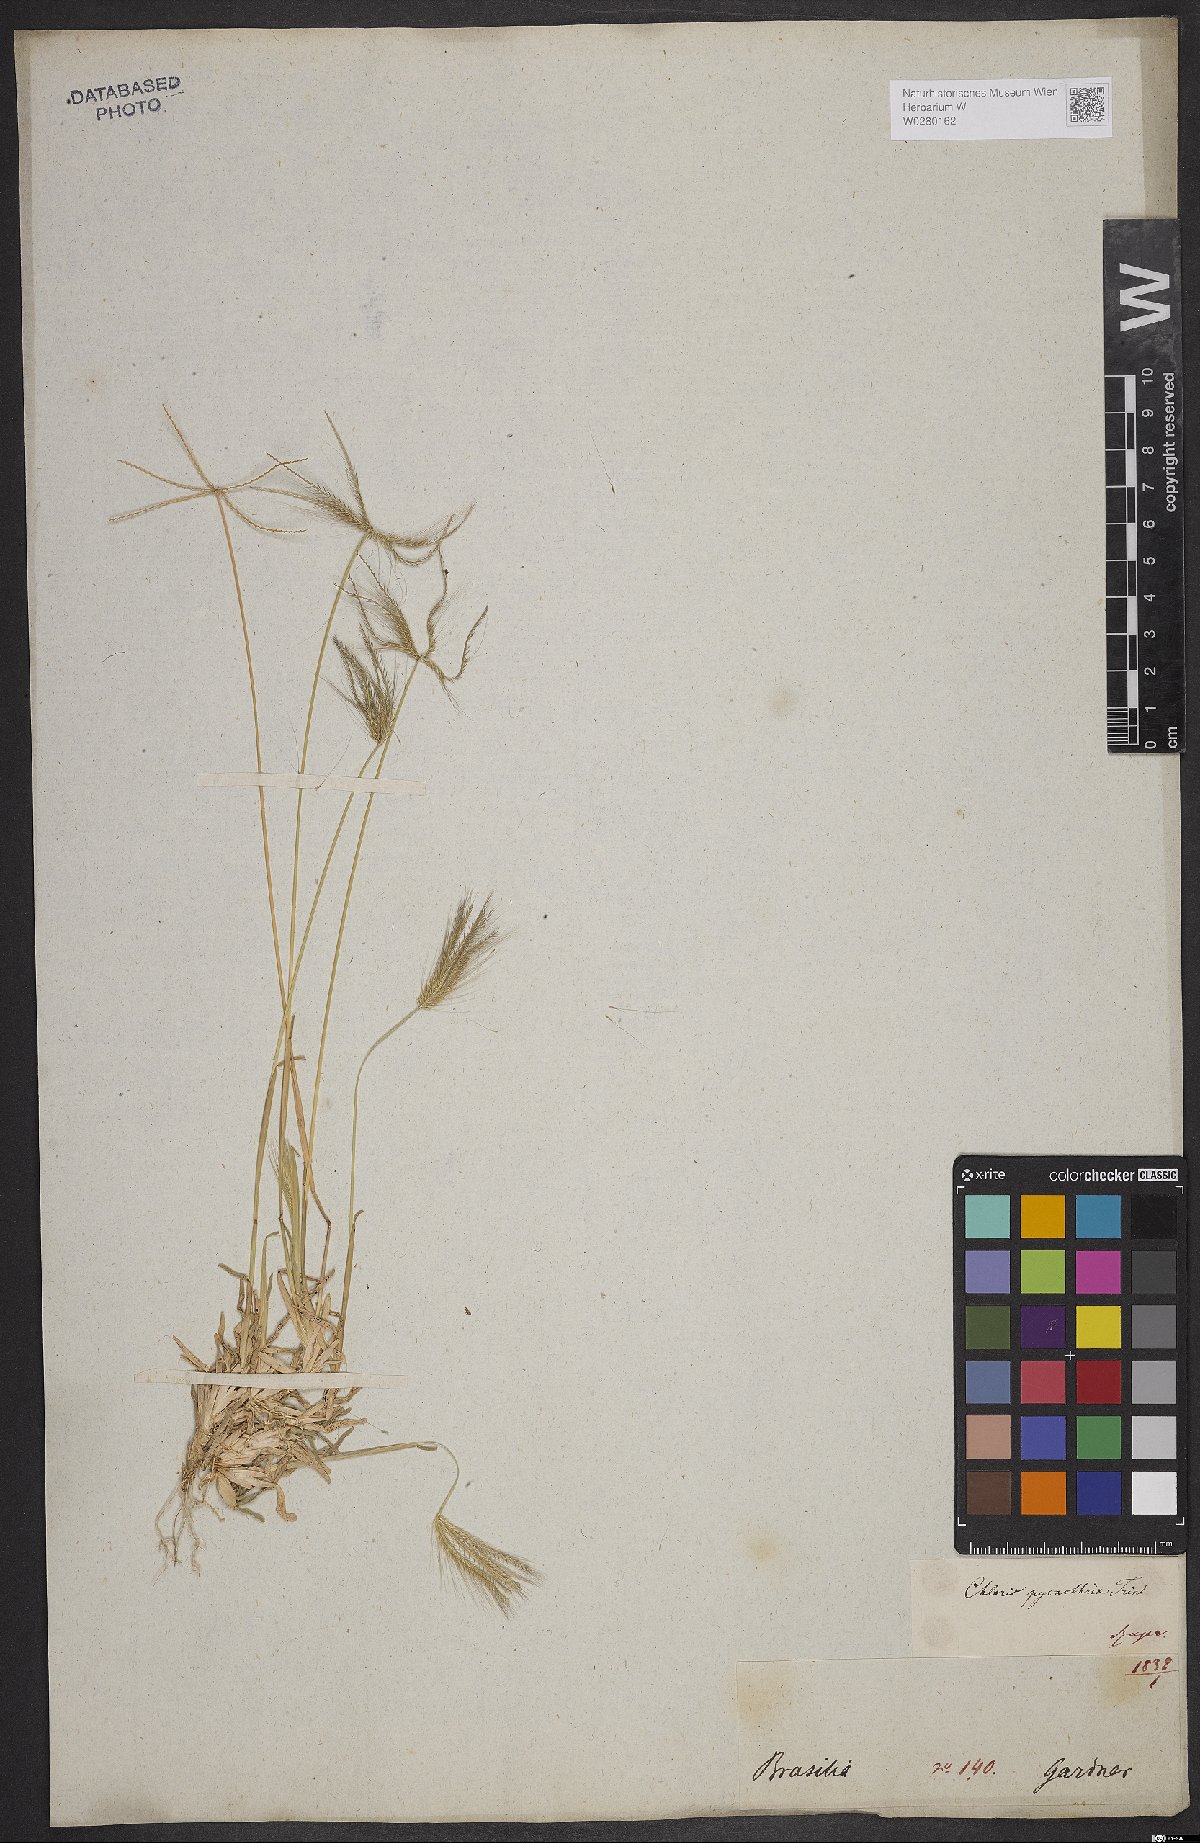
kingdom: Plantae
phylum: Tracheophyta
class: Liliopsida
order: Poales
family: Poaceae
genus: Chloris
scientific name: Chloris pycnothrix
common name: Spiderweb chloris
